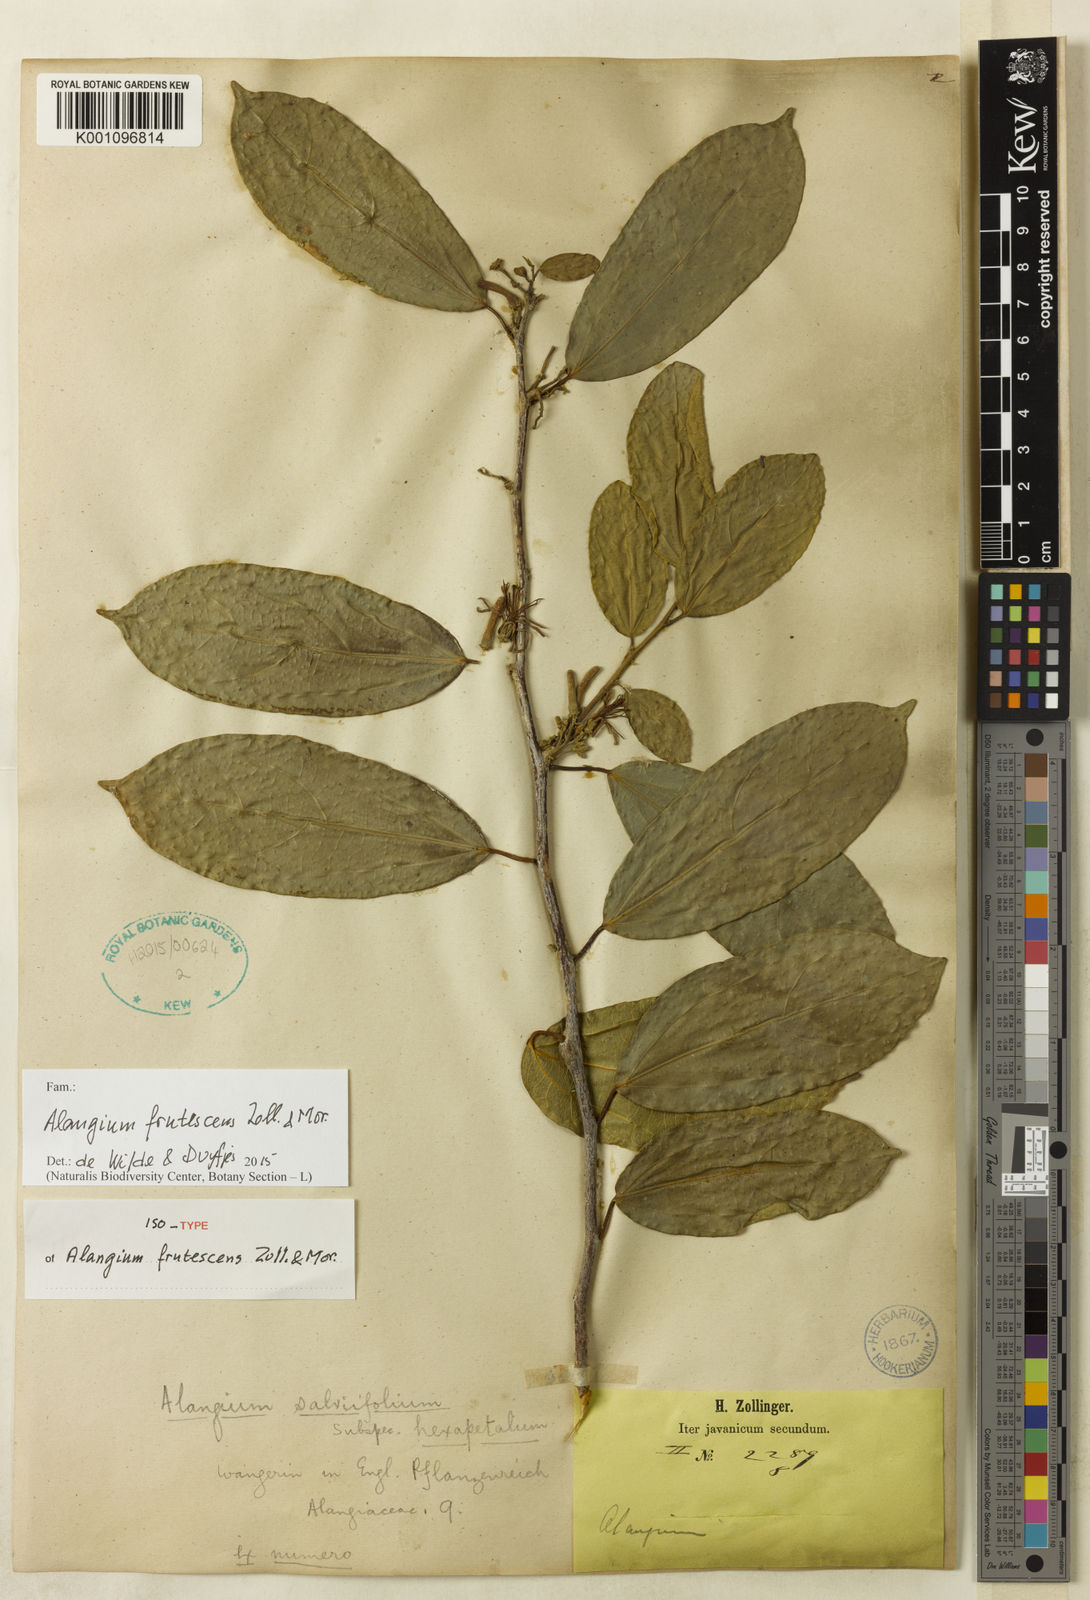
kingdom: Plantae
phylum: Tracheophyta
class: Magnoliopsida
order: Cornales
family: Cornaceae
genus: Alangium
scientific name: Alangium frutescens
